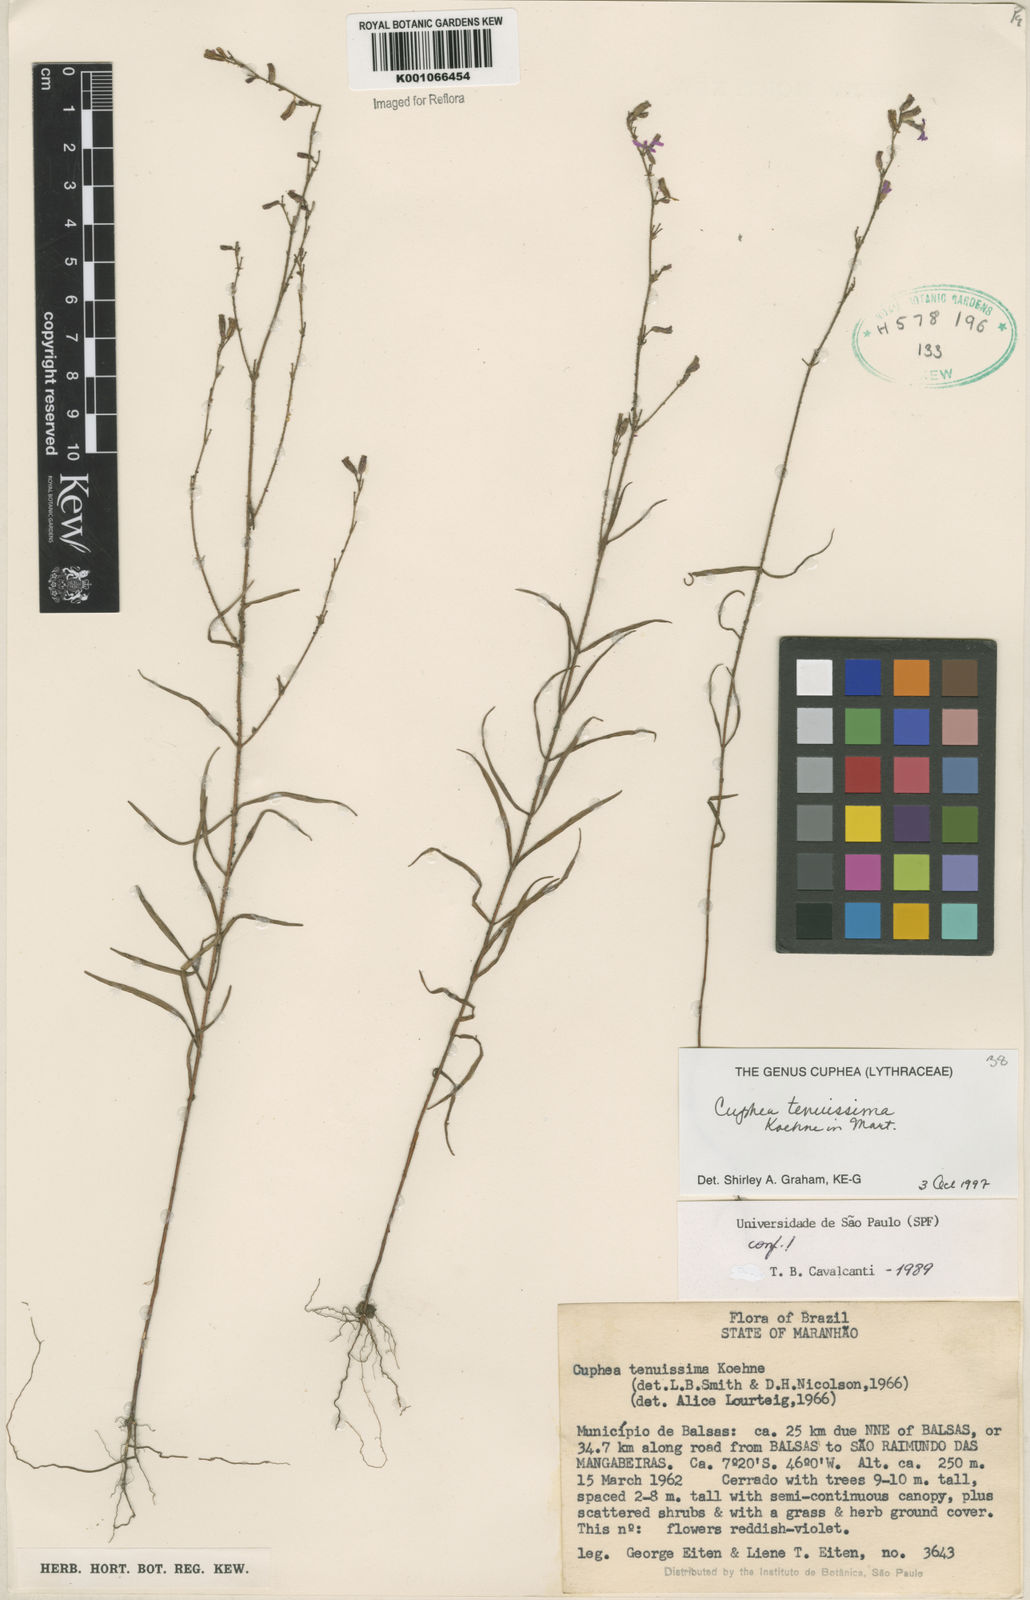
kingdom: Plantae
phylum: Tracheophyta
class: Magnoliopsida
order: Myrtales
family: Lythraceae
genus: Cuphea
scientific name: Cuphea tenuissima
